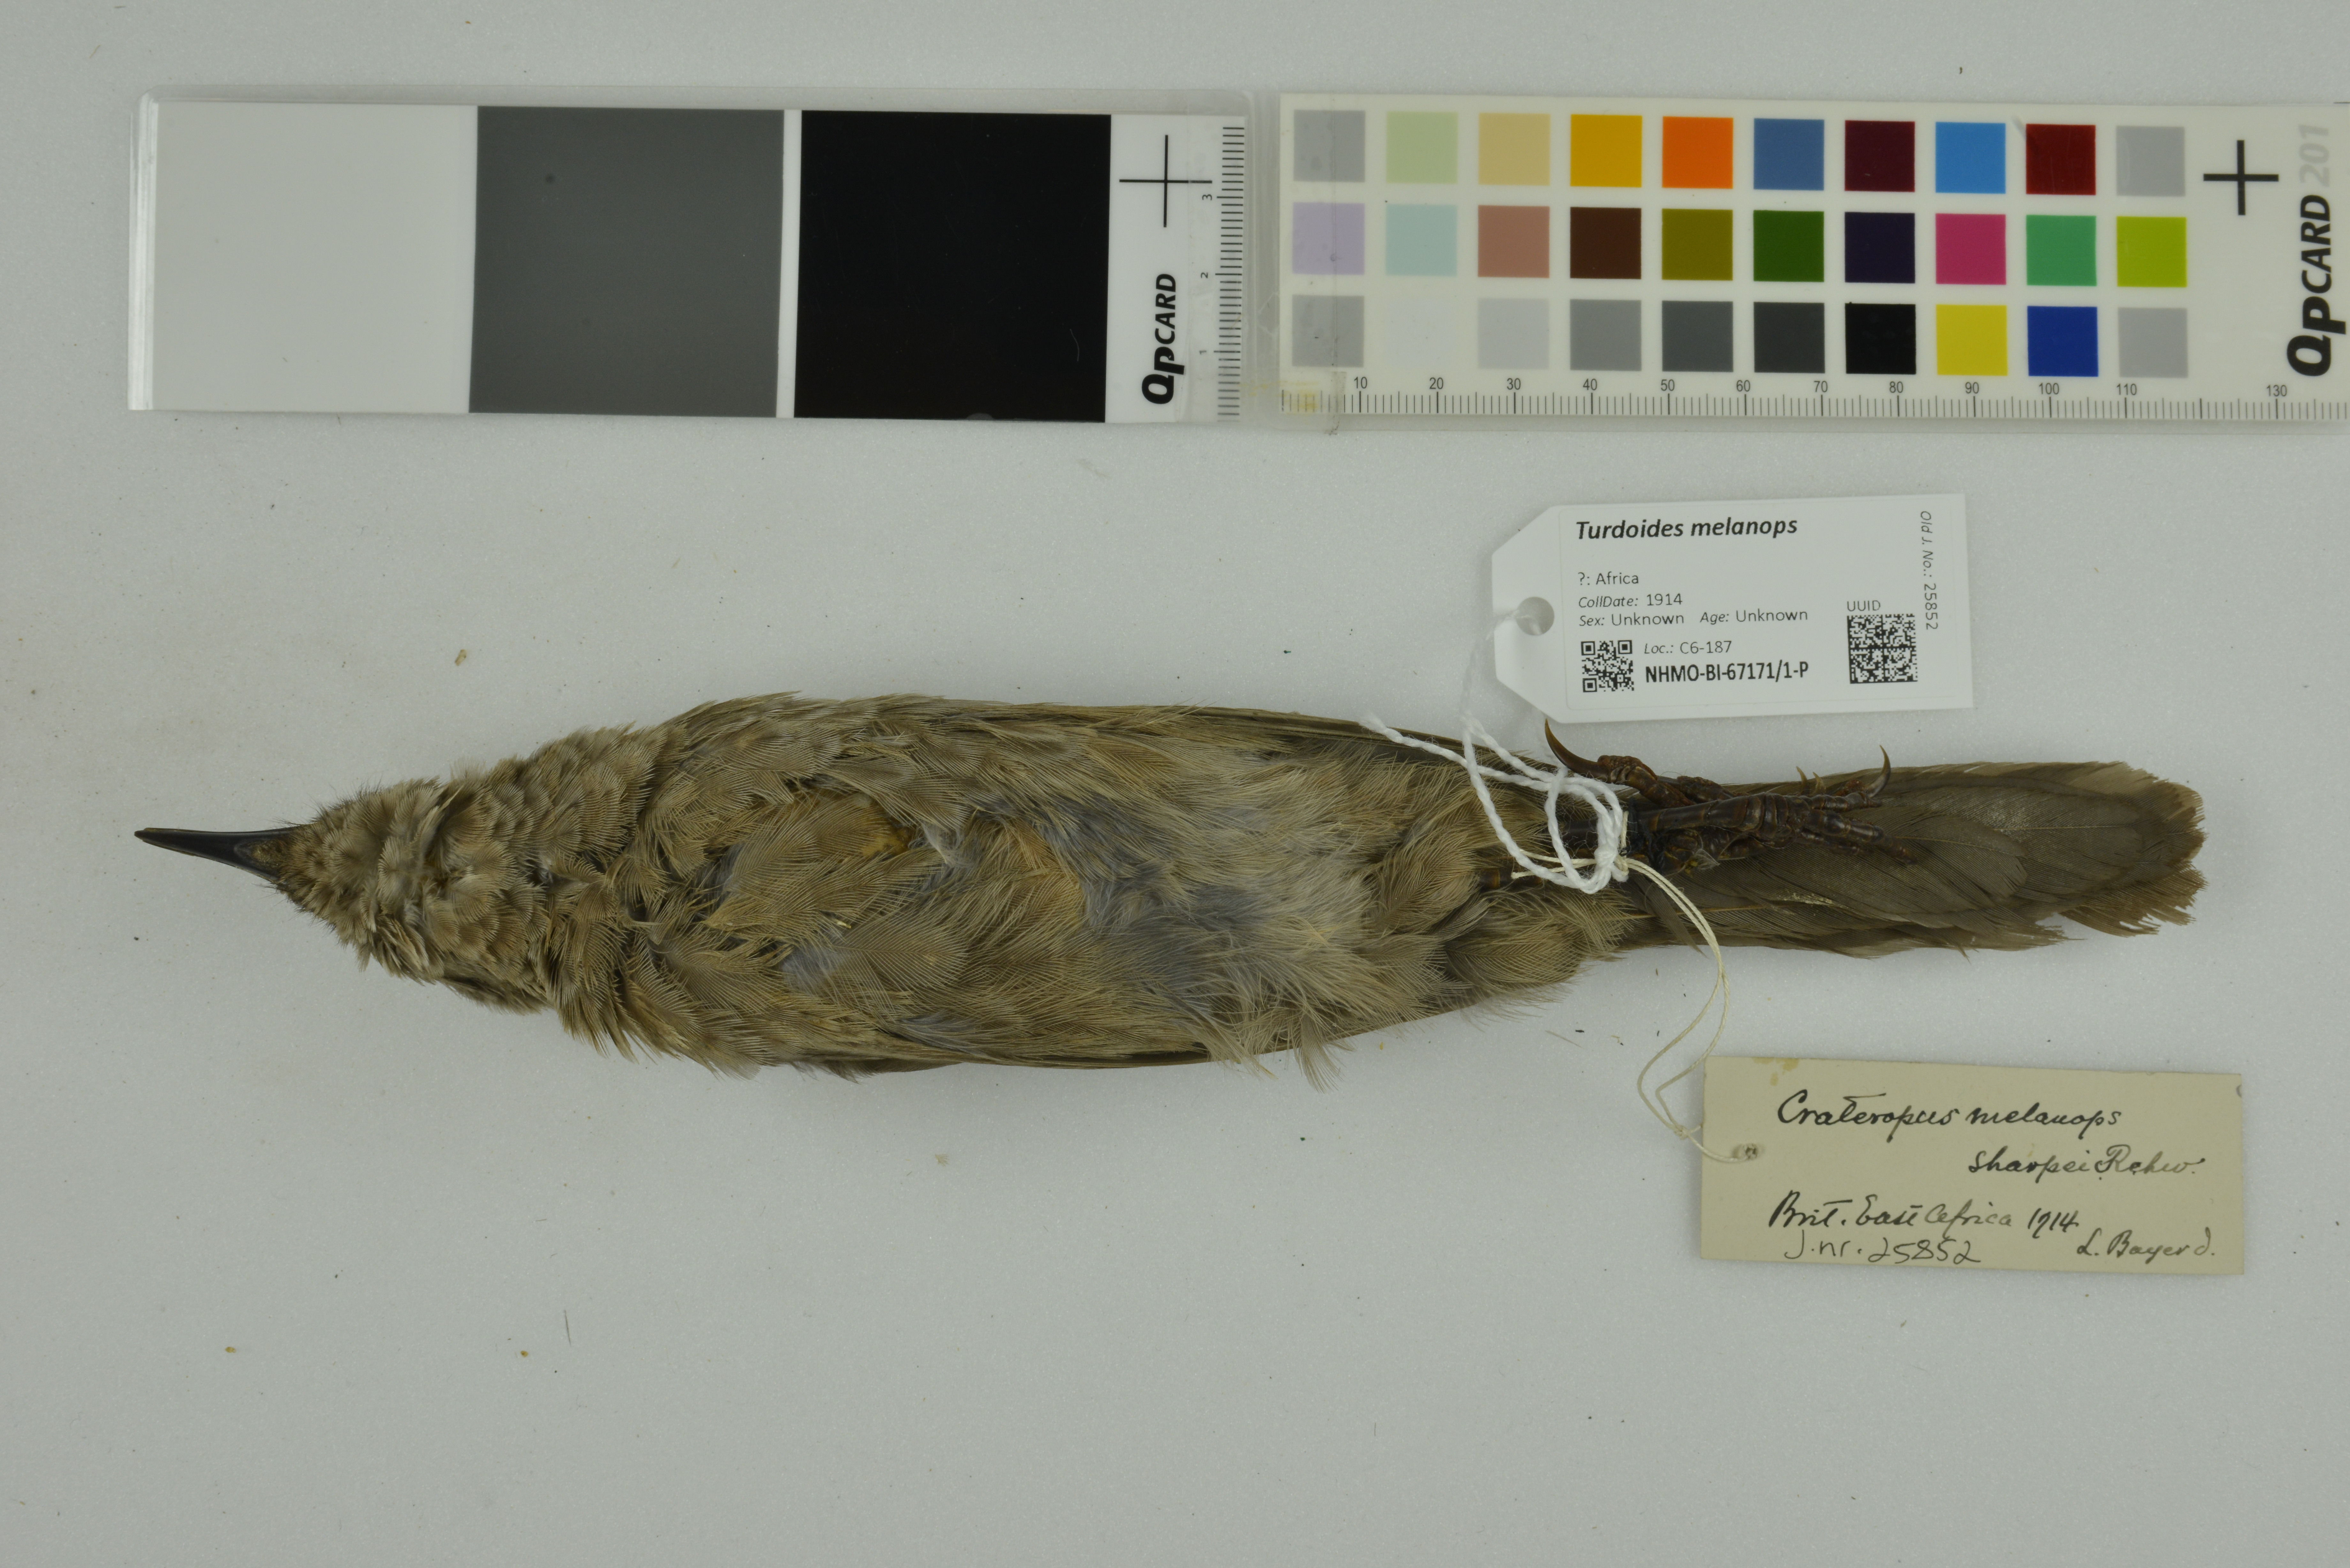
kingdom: Animalia
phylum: Chordata
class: Aves
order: Passeriformes
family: Leiothrichidae
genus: Turdoides
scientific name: Turdoides melanops
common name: Black-faced babbler
